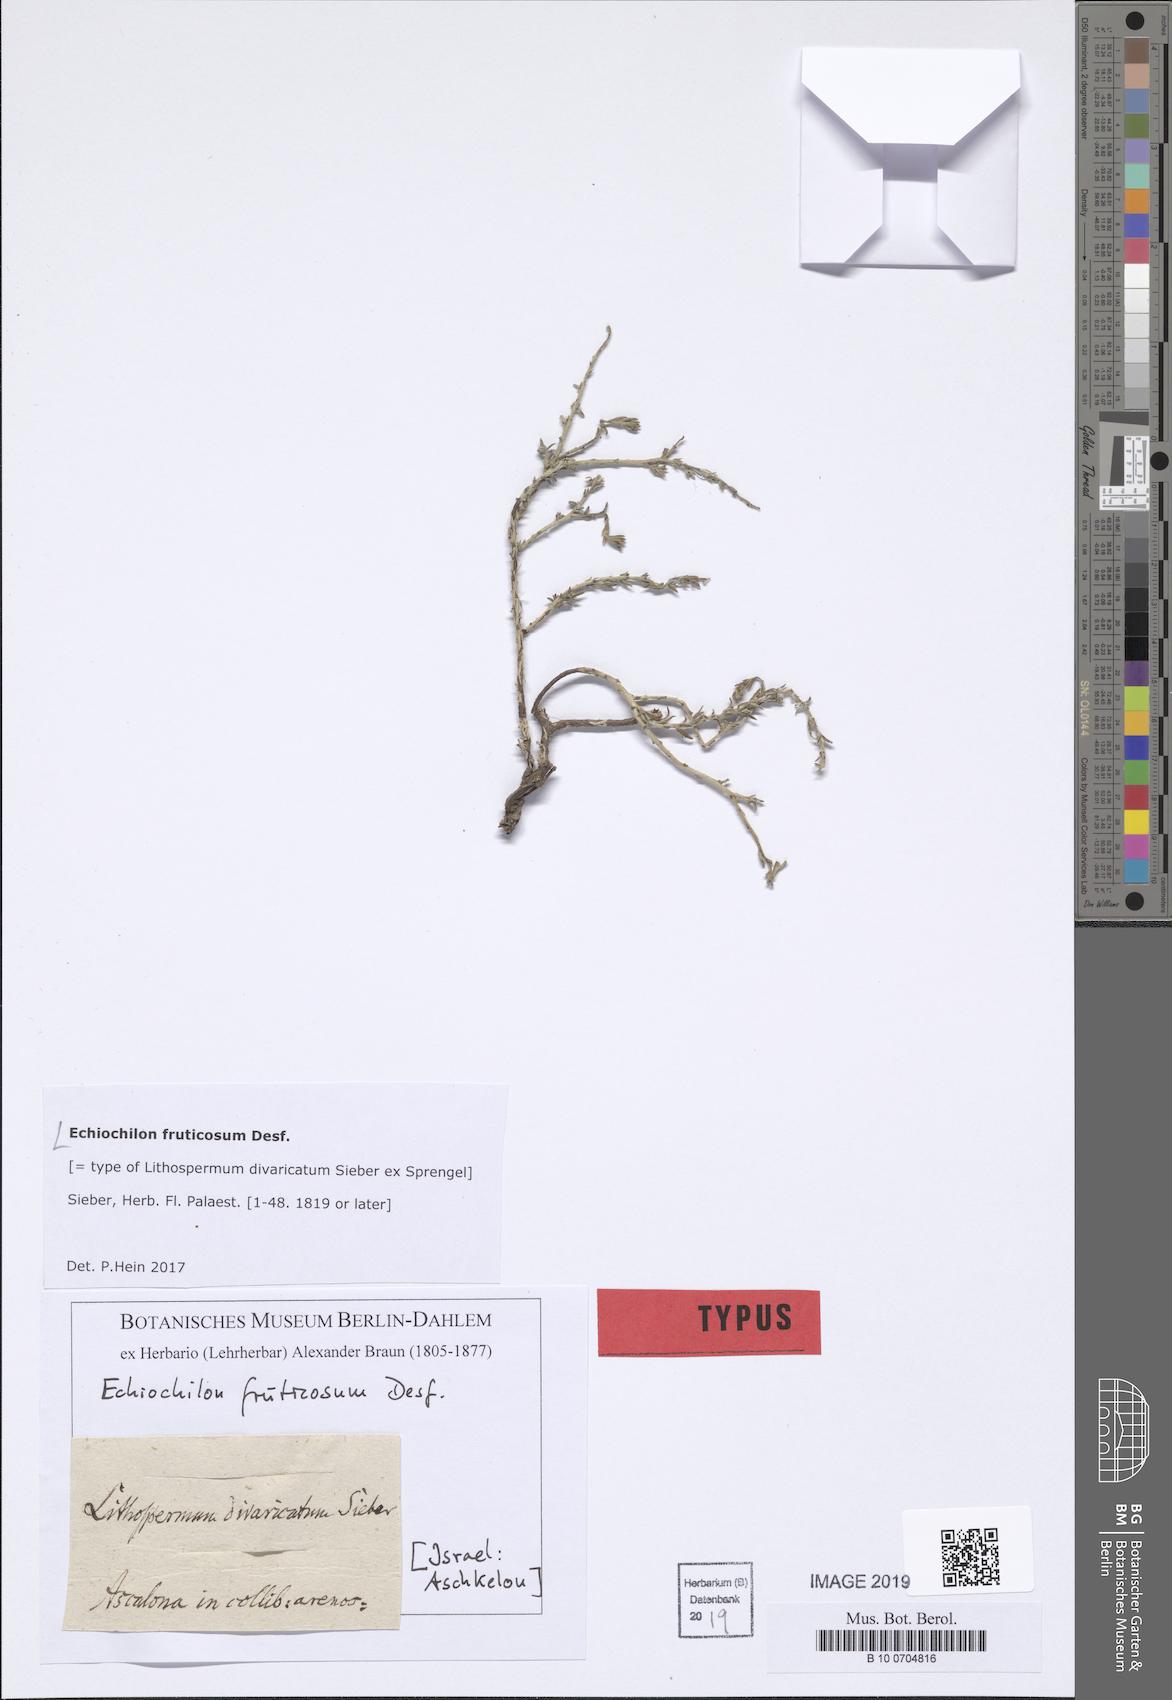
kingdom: Plantae
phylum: Tracheophyta
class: Magnoliopsida
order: Boraginales
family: Boraginaceae
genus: Echiochilon
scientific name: Echiochilon fruticosum
